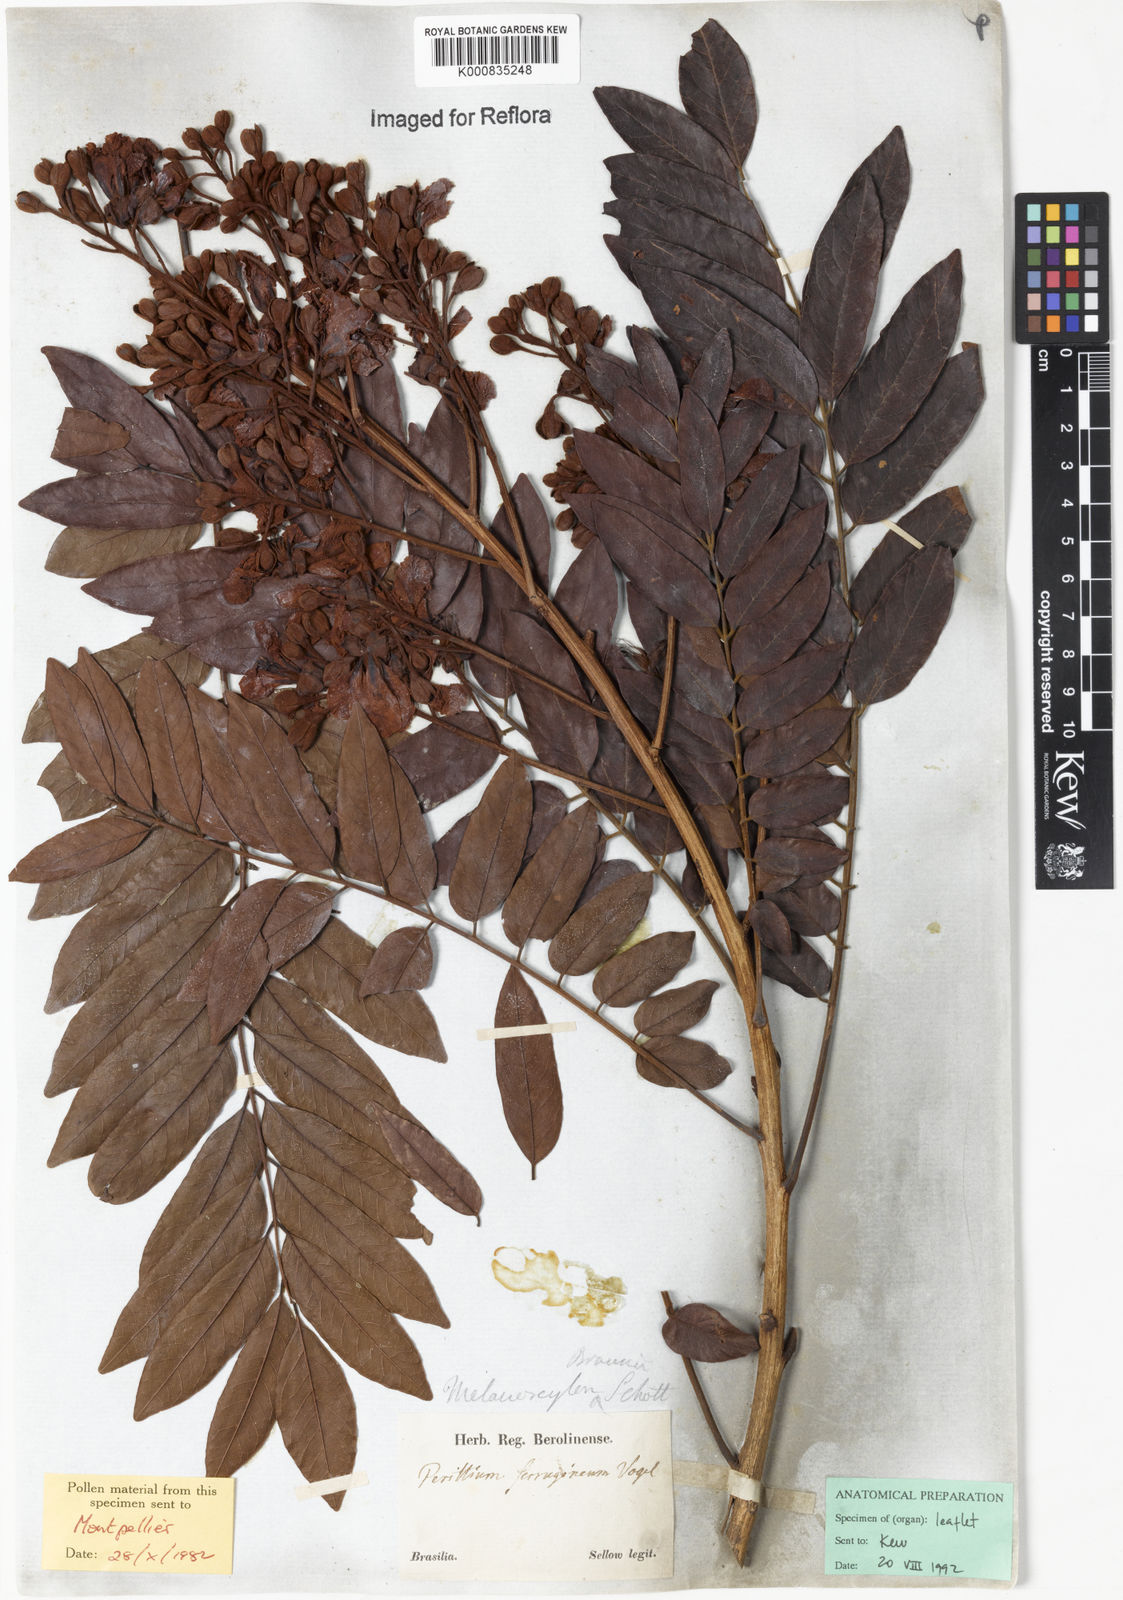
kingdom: Plantae
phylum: Tracheophyta
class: Magnoliopsida
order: Fabales
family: Fabaceae
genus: Melanoxylum
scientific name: Melanoxylum brauna
